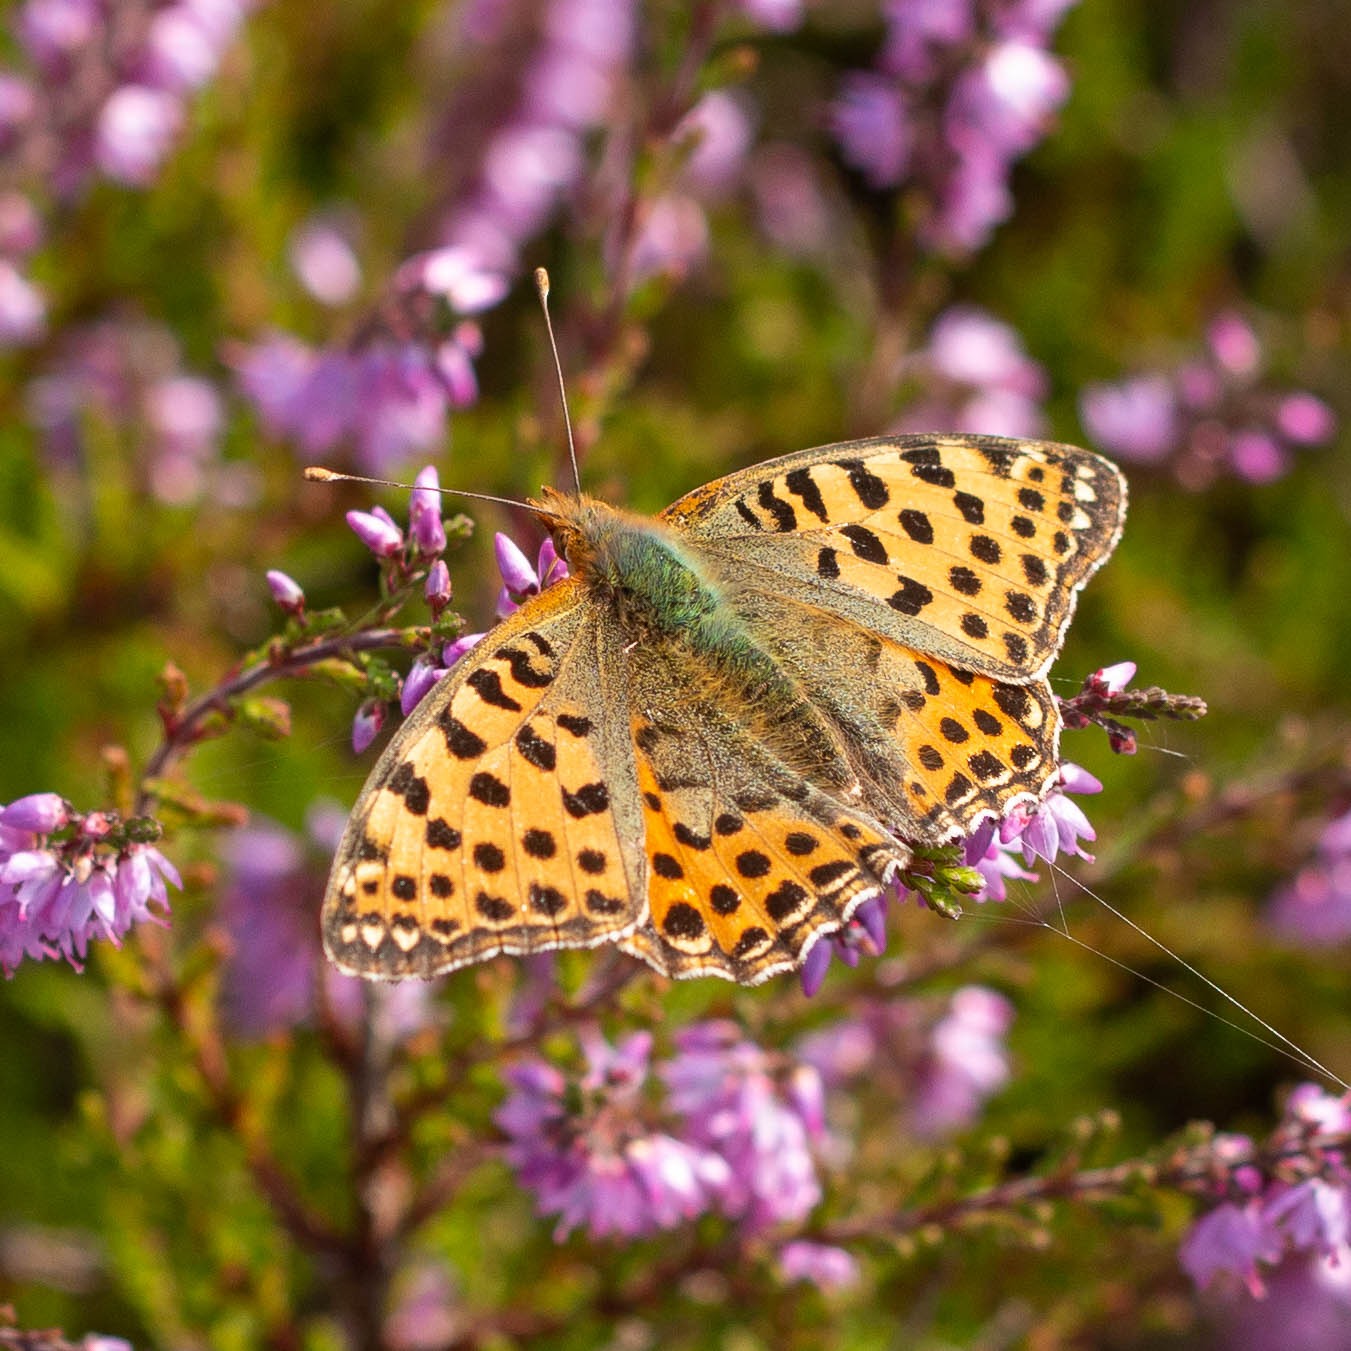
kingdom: Animalia
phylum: Arthropoda
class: Insecta
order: Lepidoptera
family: Nymphalidae
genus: Issoria
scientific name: Issoria lathonia
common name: Storplettet perlemorsommerfugl
